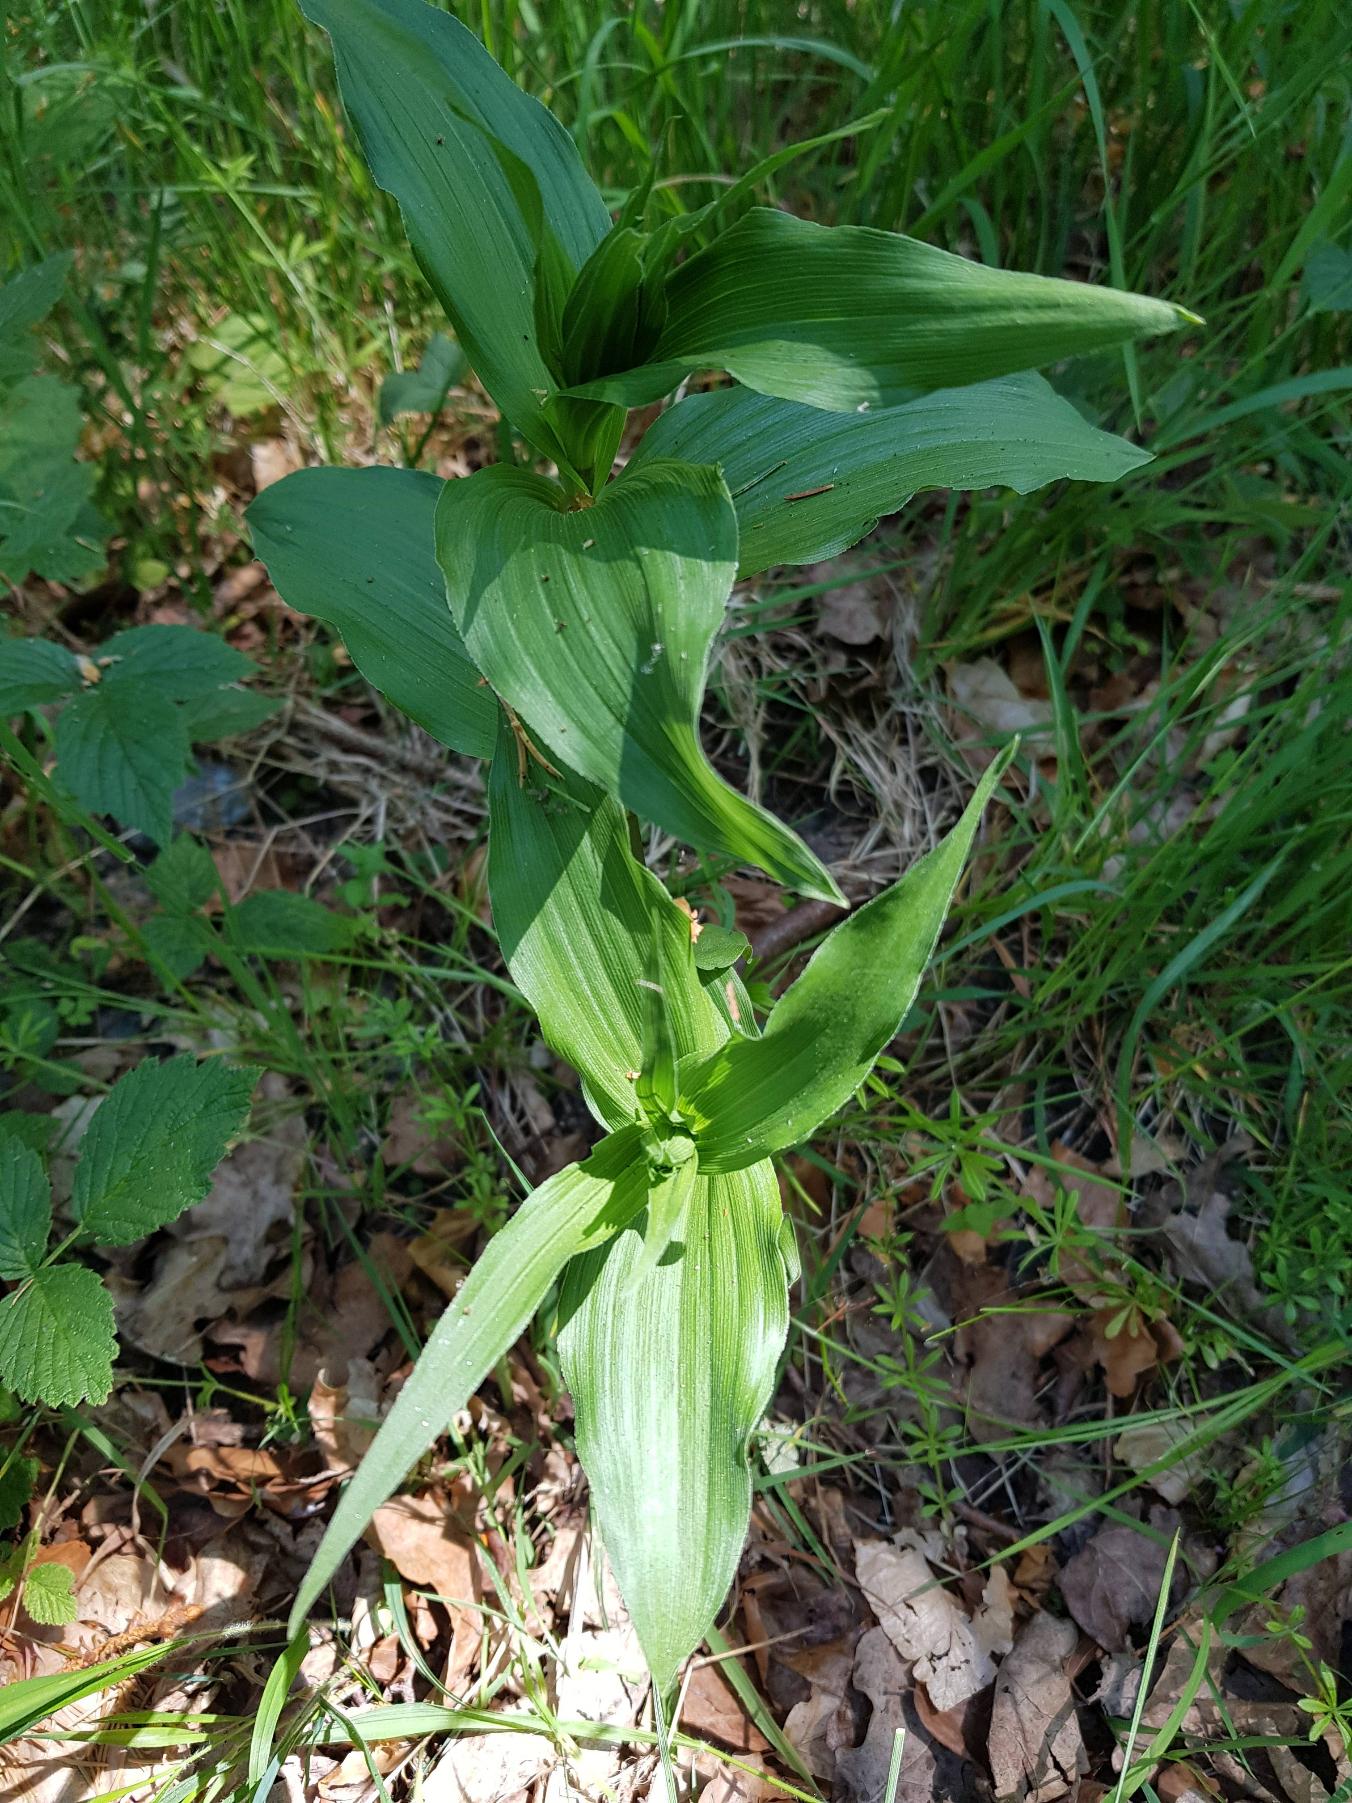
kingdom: Plantae
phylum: Tracheophyta
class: Liliopsida
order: Asparagales
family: Orchidaceae
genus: Epipactis
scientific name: Epipactis helleborine
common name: Skov-hullæbe
